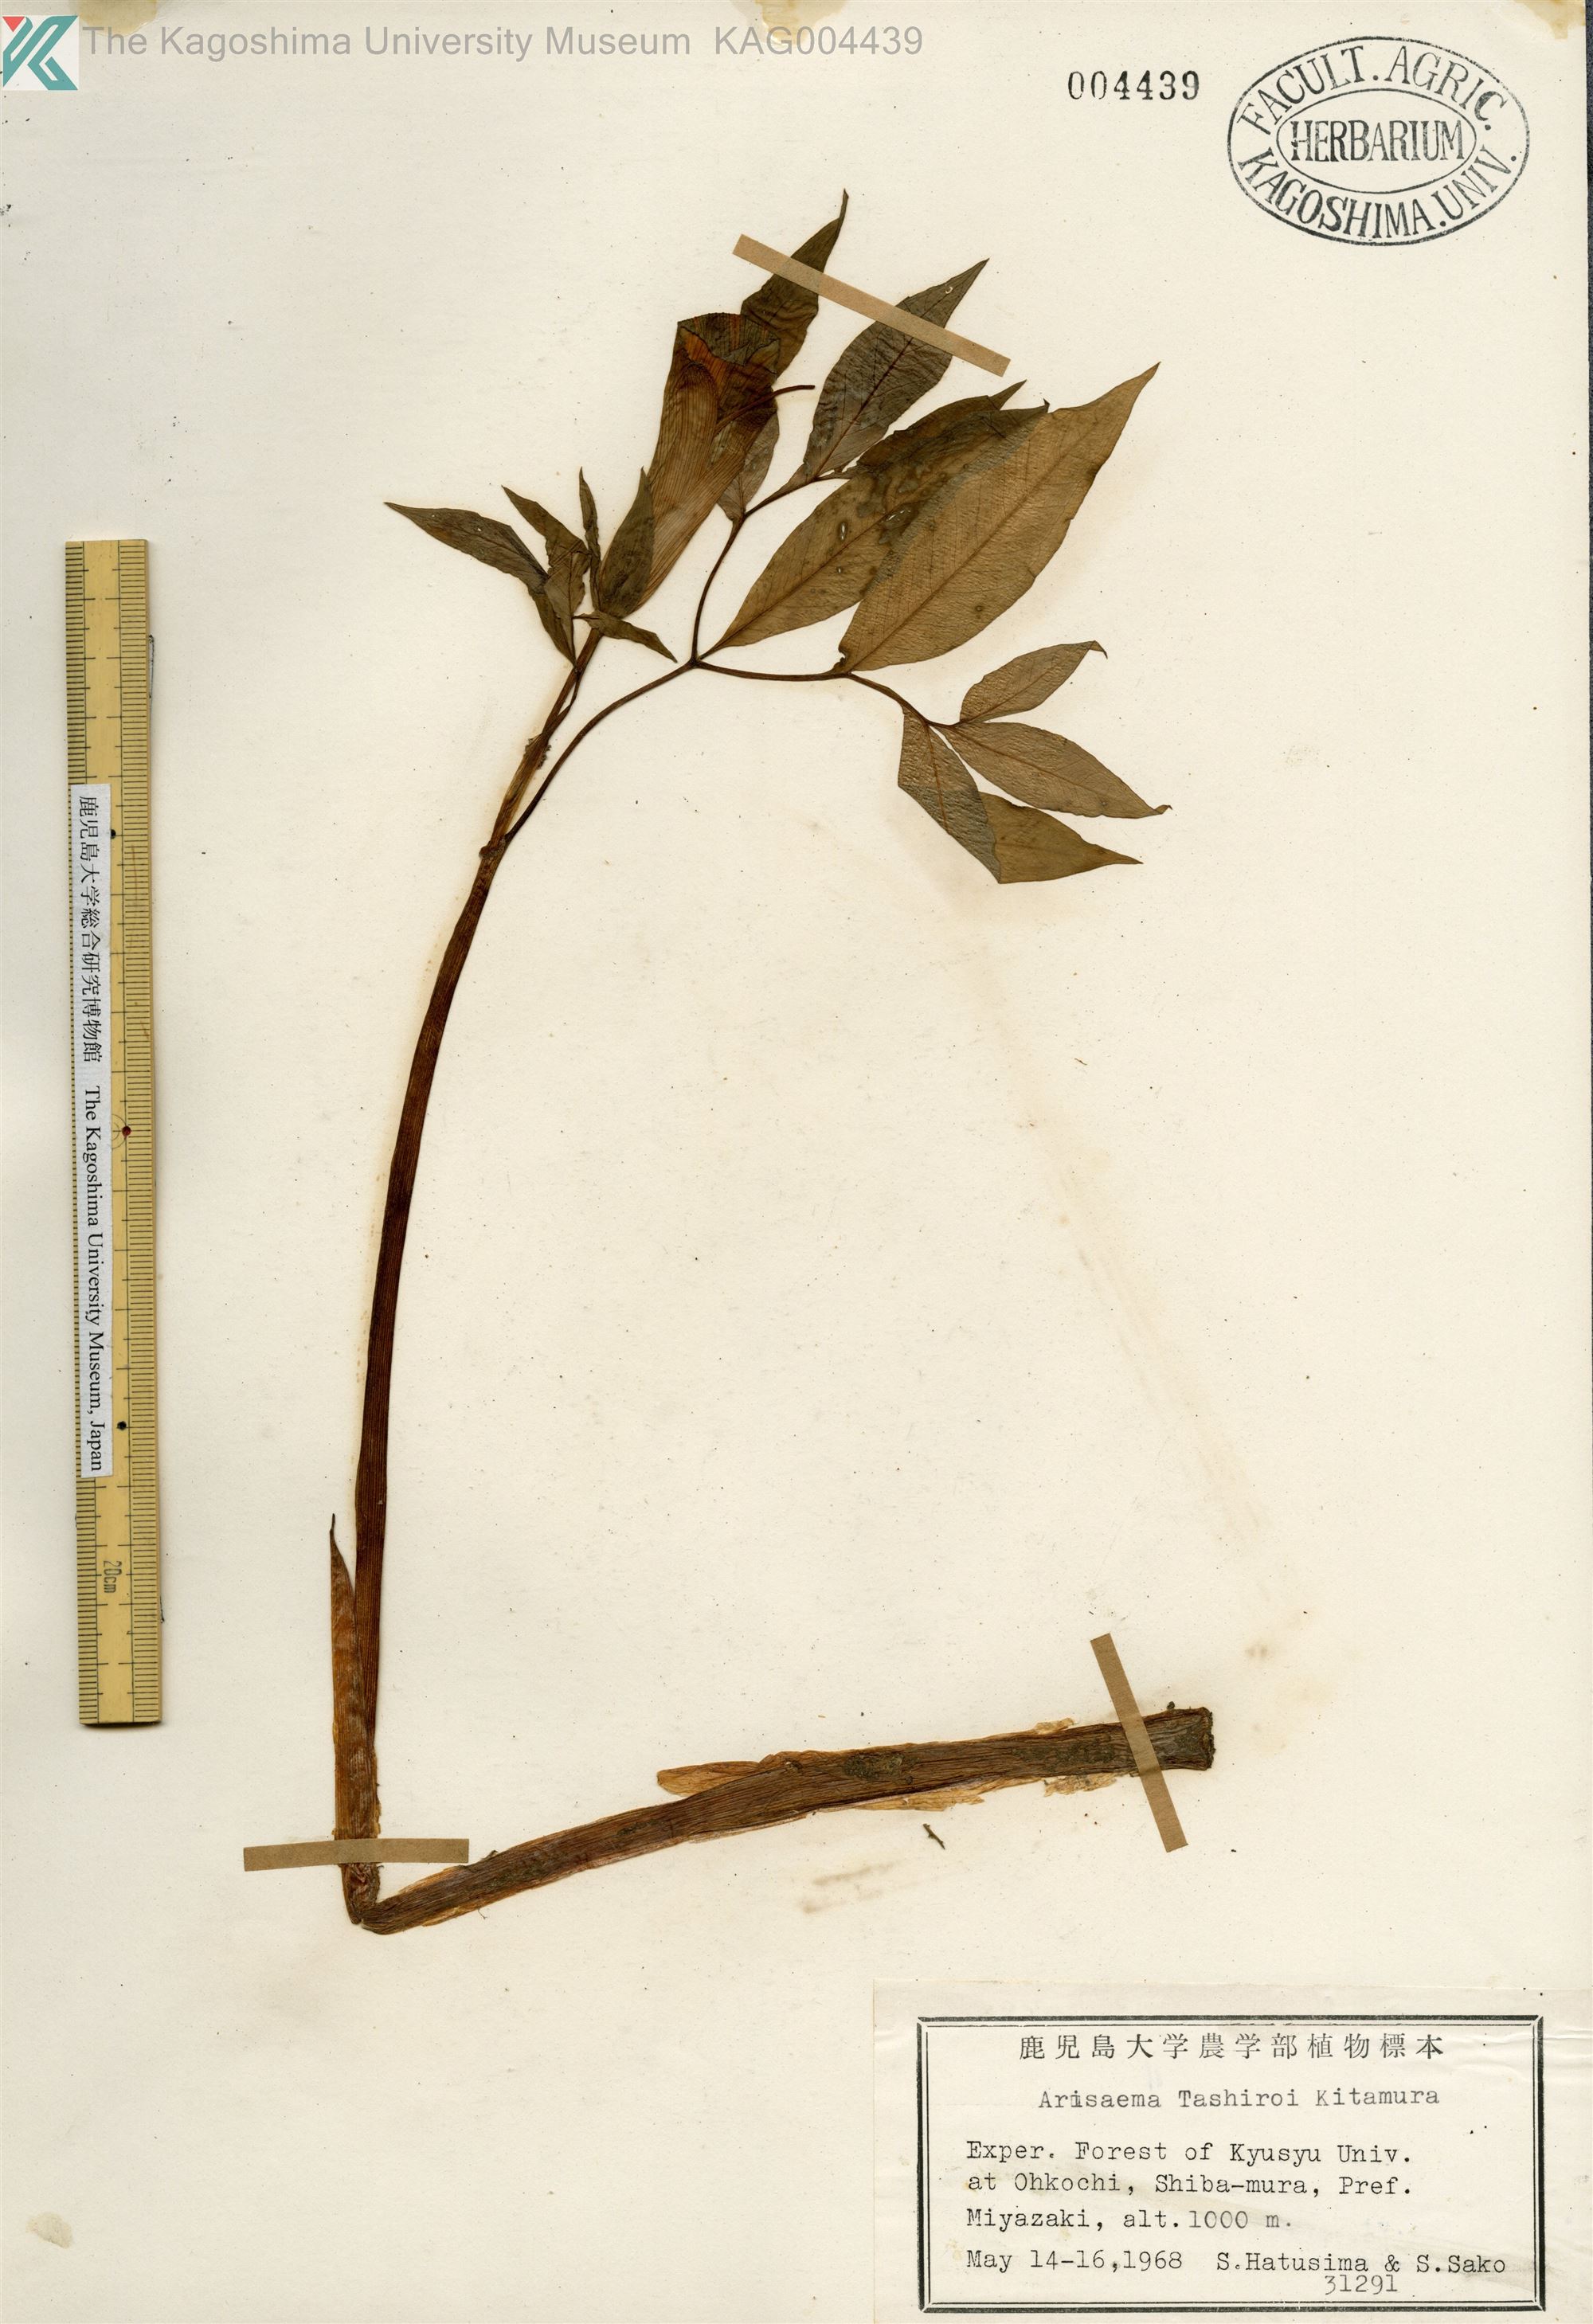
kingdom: Plantae
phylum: Tracheophyta
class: Liliopsida
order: Alismatales
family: Araceae
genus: Arisaema
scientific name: Arisaema tashiroi
